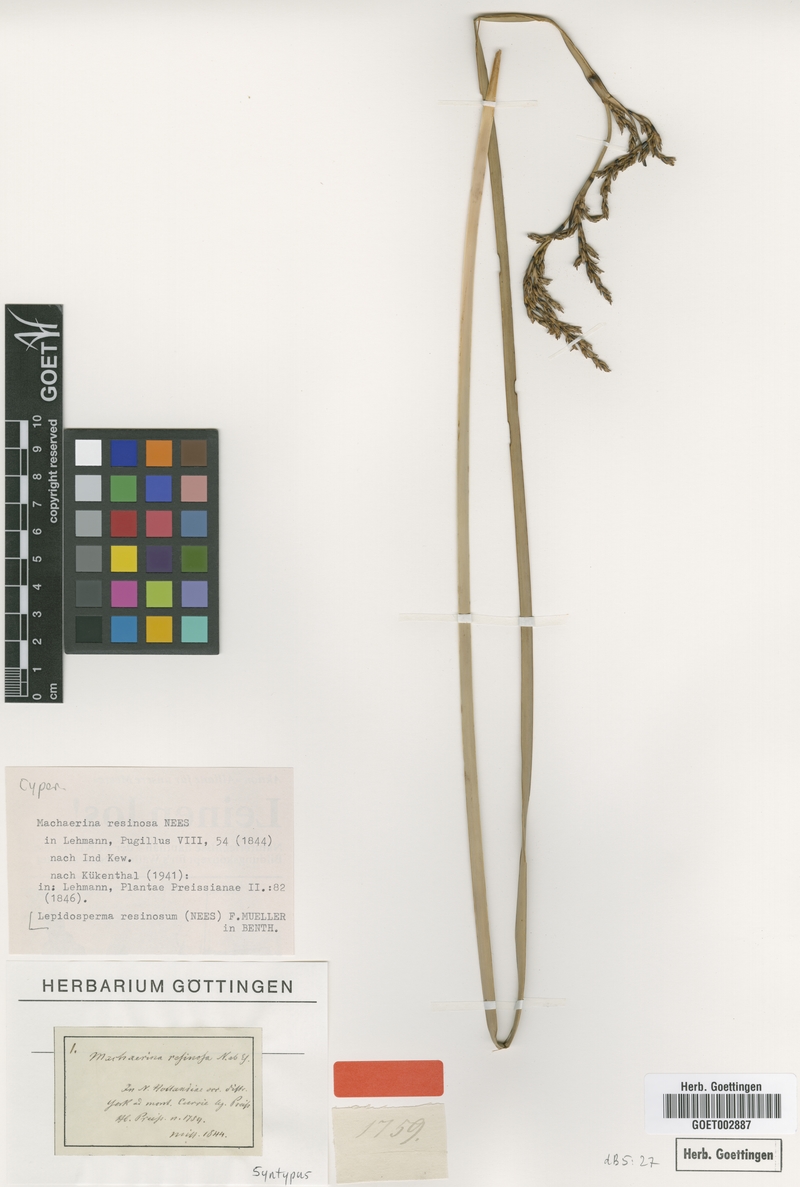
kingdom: Plantae
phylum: Tracheophyta
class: Liliopsida
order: Poales
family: Cyperaceae
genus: Lepidosperma
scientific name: Lepidosperma
